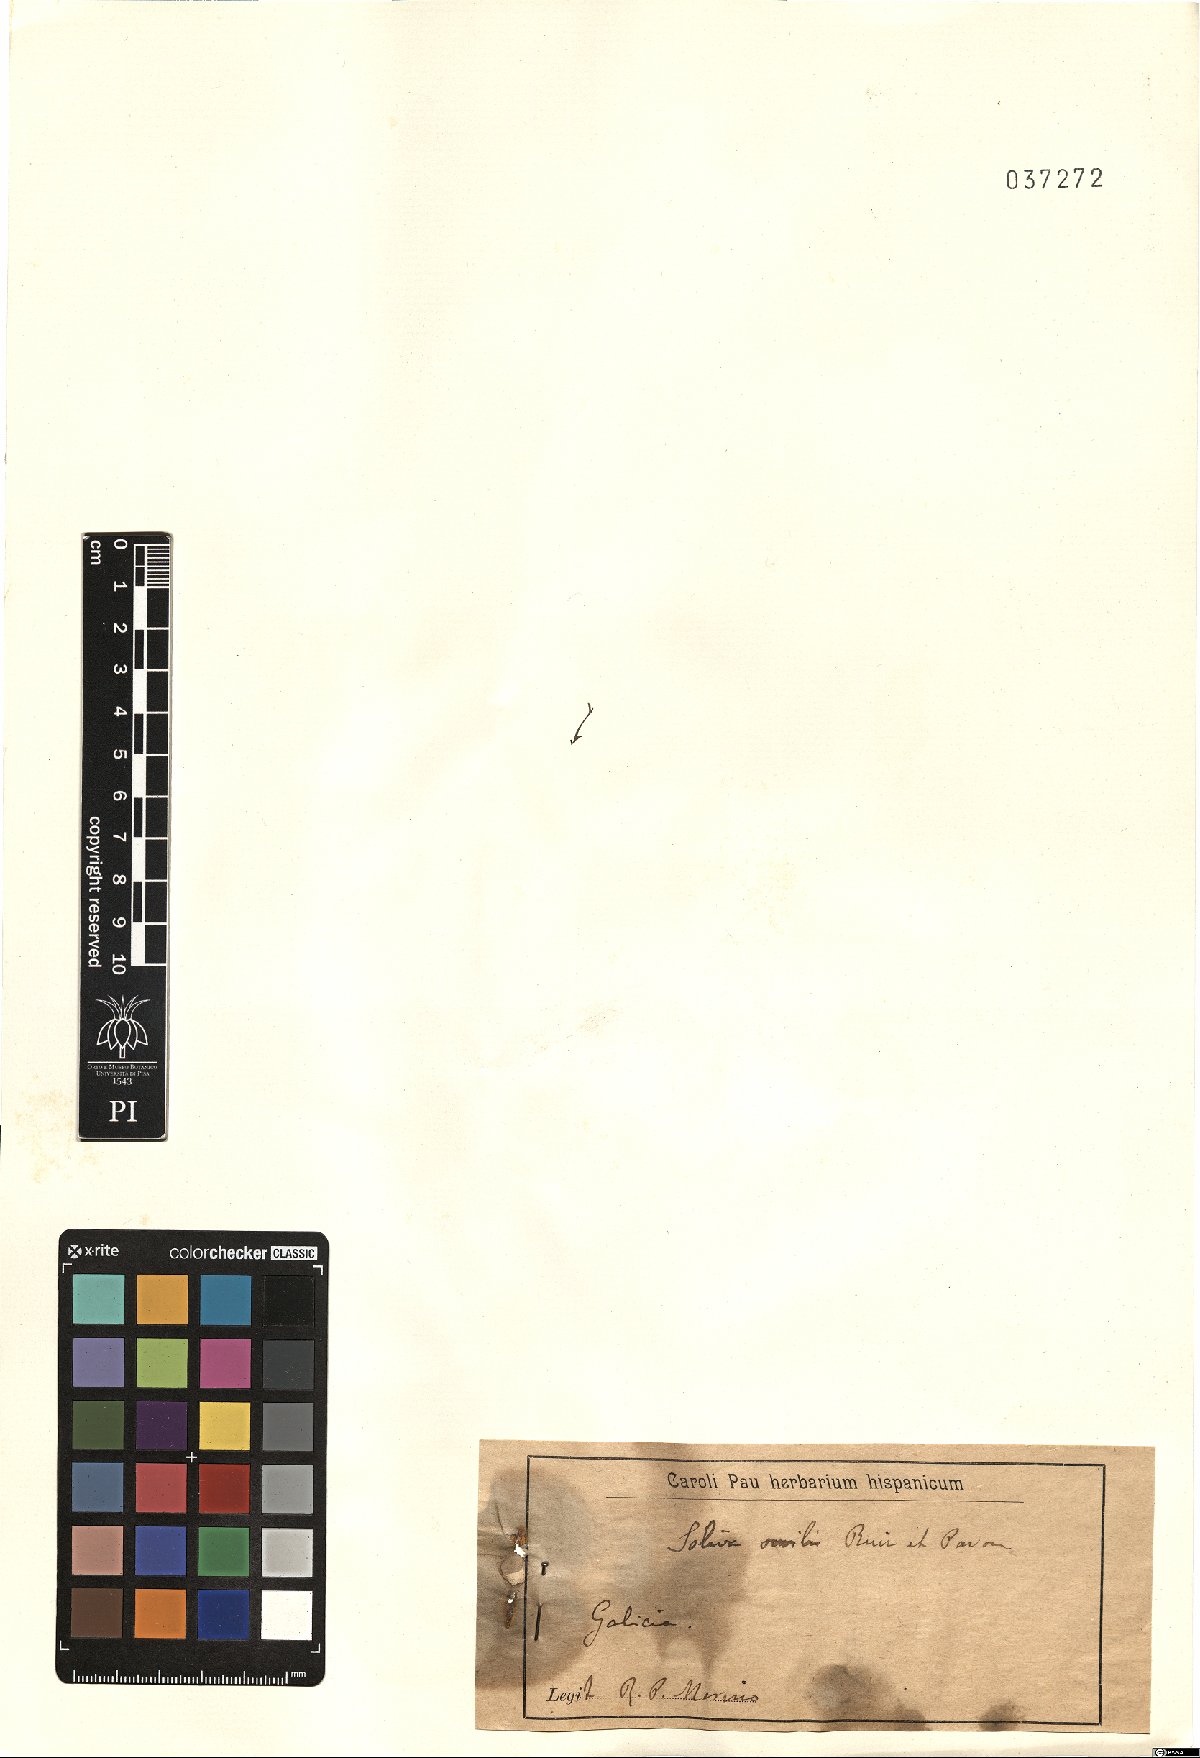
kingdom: Plantae
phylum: Tracheophyta
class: Magnoliopsida
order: Asterales
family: Asteraceae
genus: Soliva
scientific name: Soliva sessilis
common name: Field burrweed
